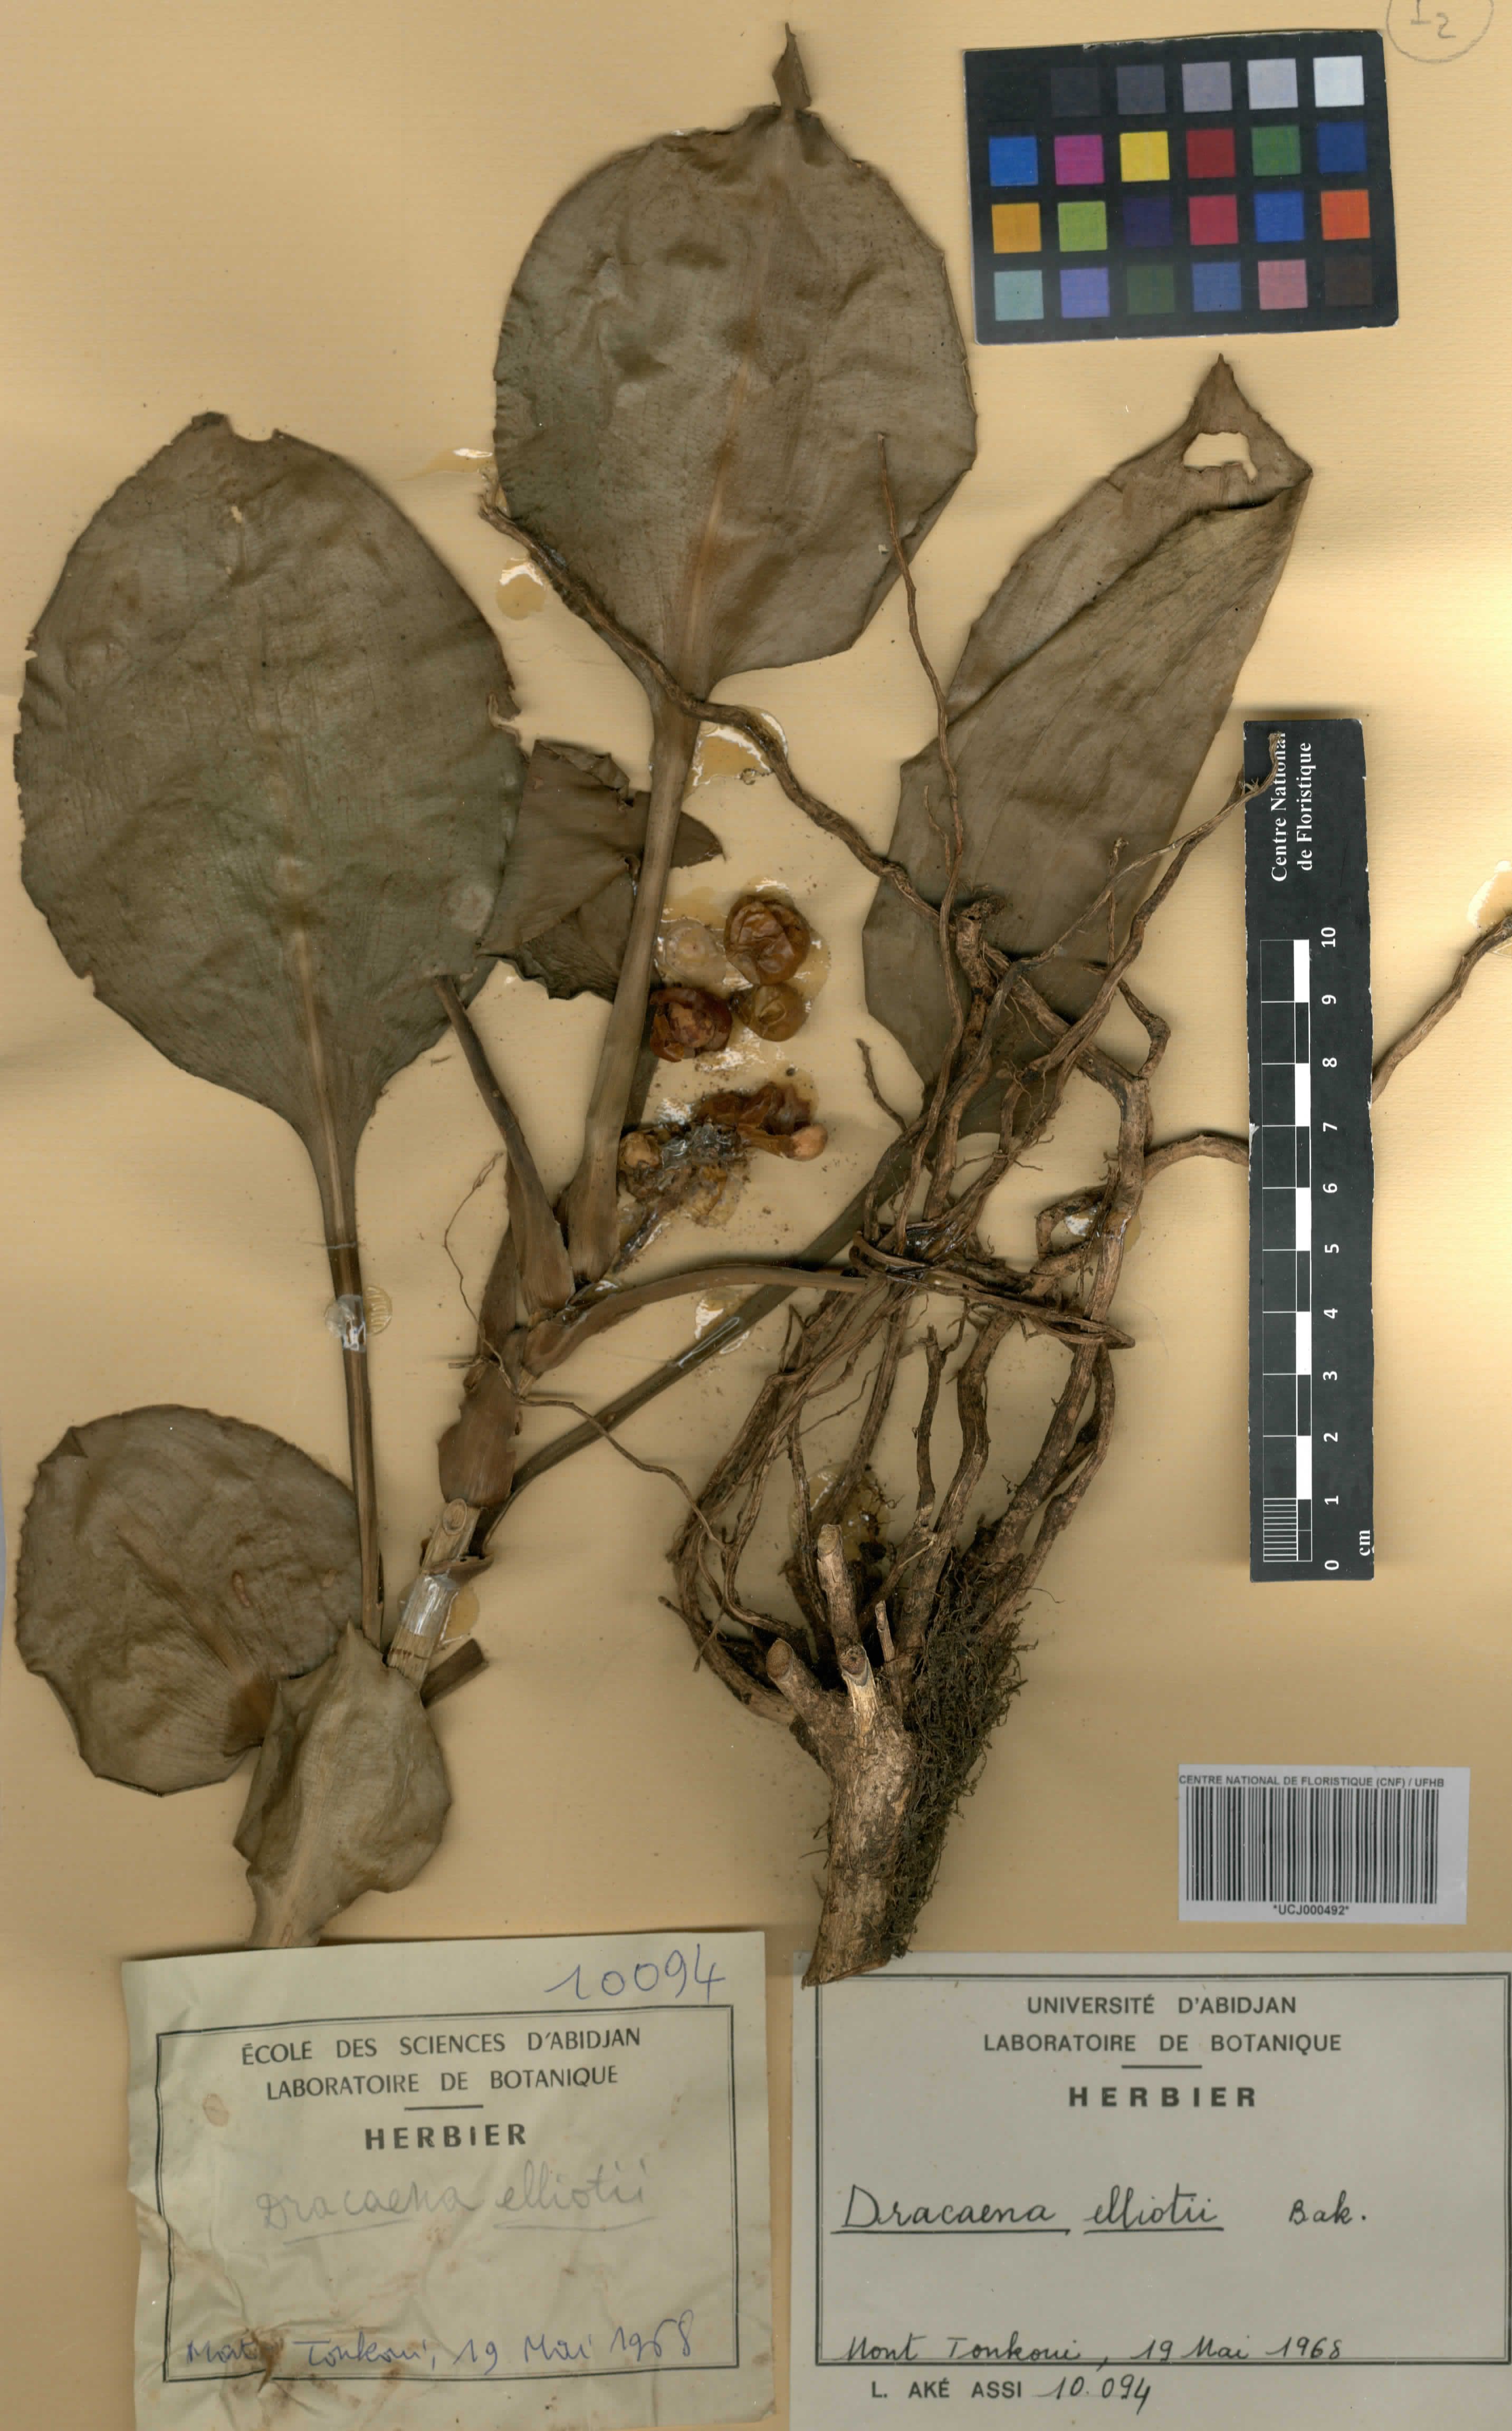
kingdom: Plantae
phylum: Tracheophyta
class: Liliopsida
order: Asparagales
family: Asparagaceae
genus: Dracaena
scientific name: Dracaena cristula
